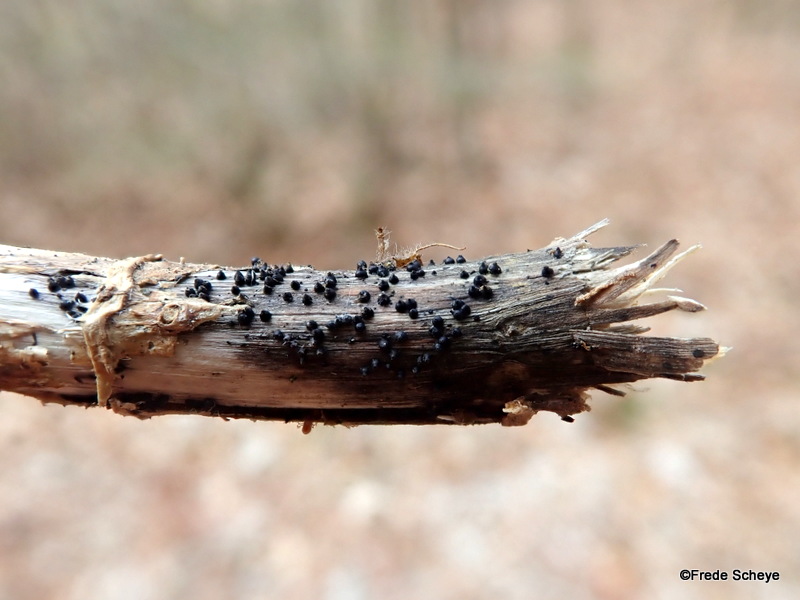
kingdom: Fungi
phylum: Ascomycota
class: Dothideomycetes
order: Pleosporales
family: Leptosphaeriaceae
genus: Leptosphaeria
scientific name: Leptosphaeria acuta
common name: spids kulkegle
